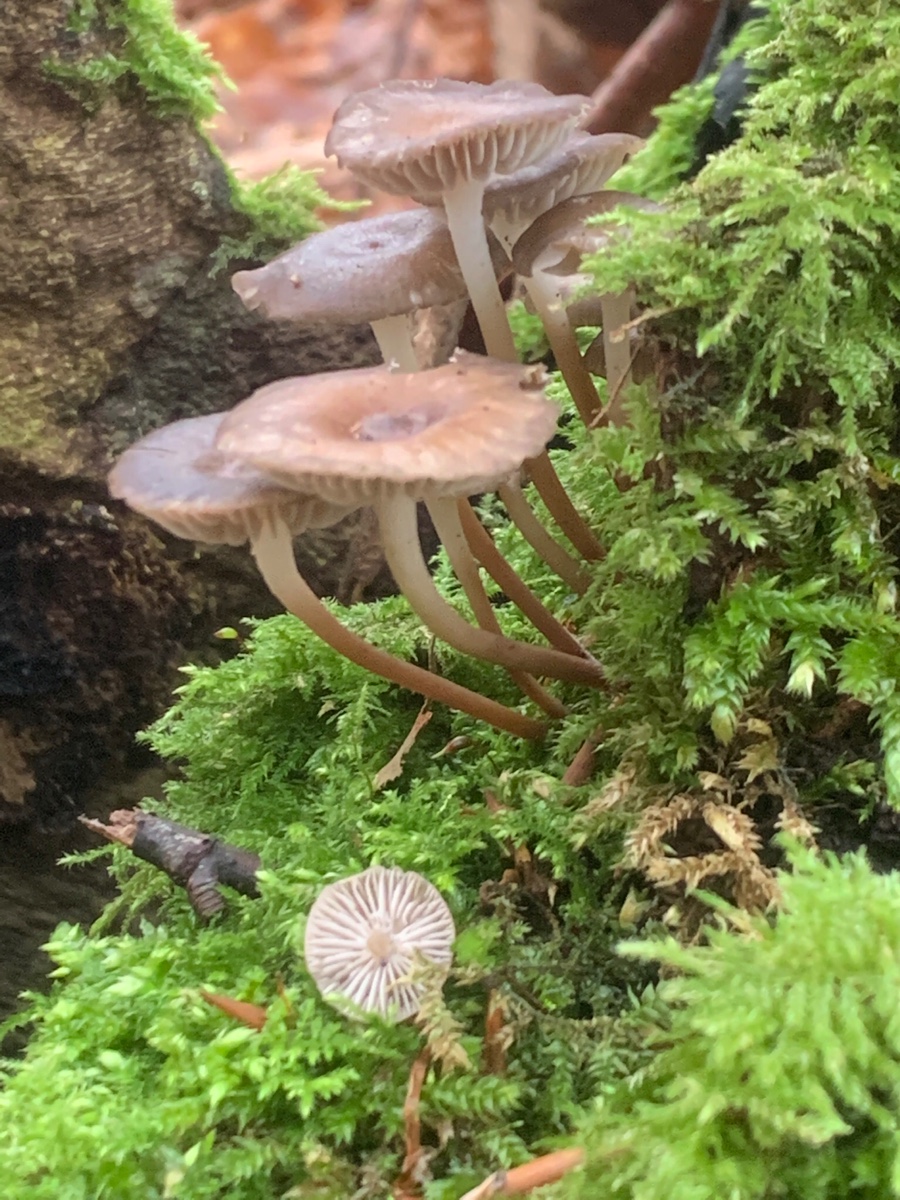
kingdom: Fungi
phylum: Basidiomycota
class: Agaricomycetes
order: Agaricales
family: Mycenaceae
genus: Mycena
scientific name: Mycena tintinnabulum
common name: vinter-huesvamp
